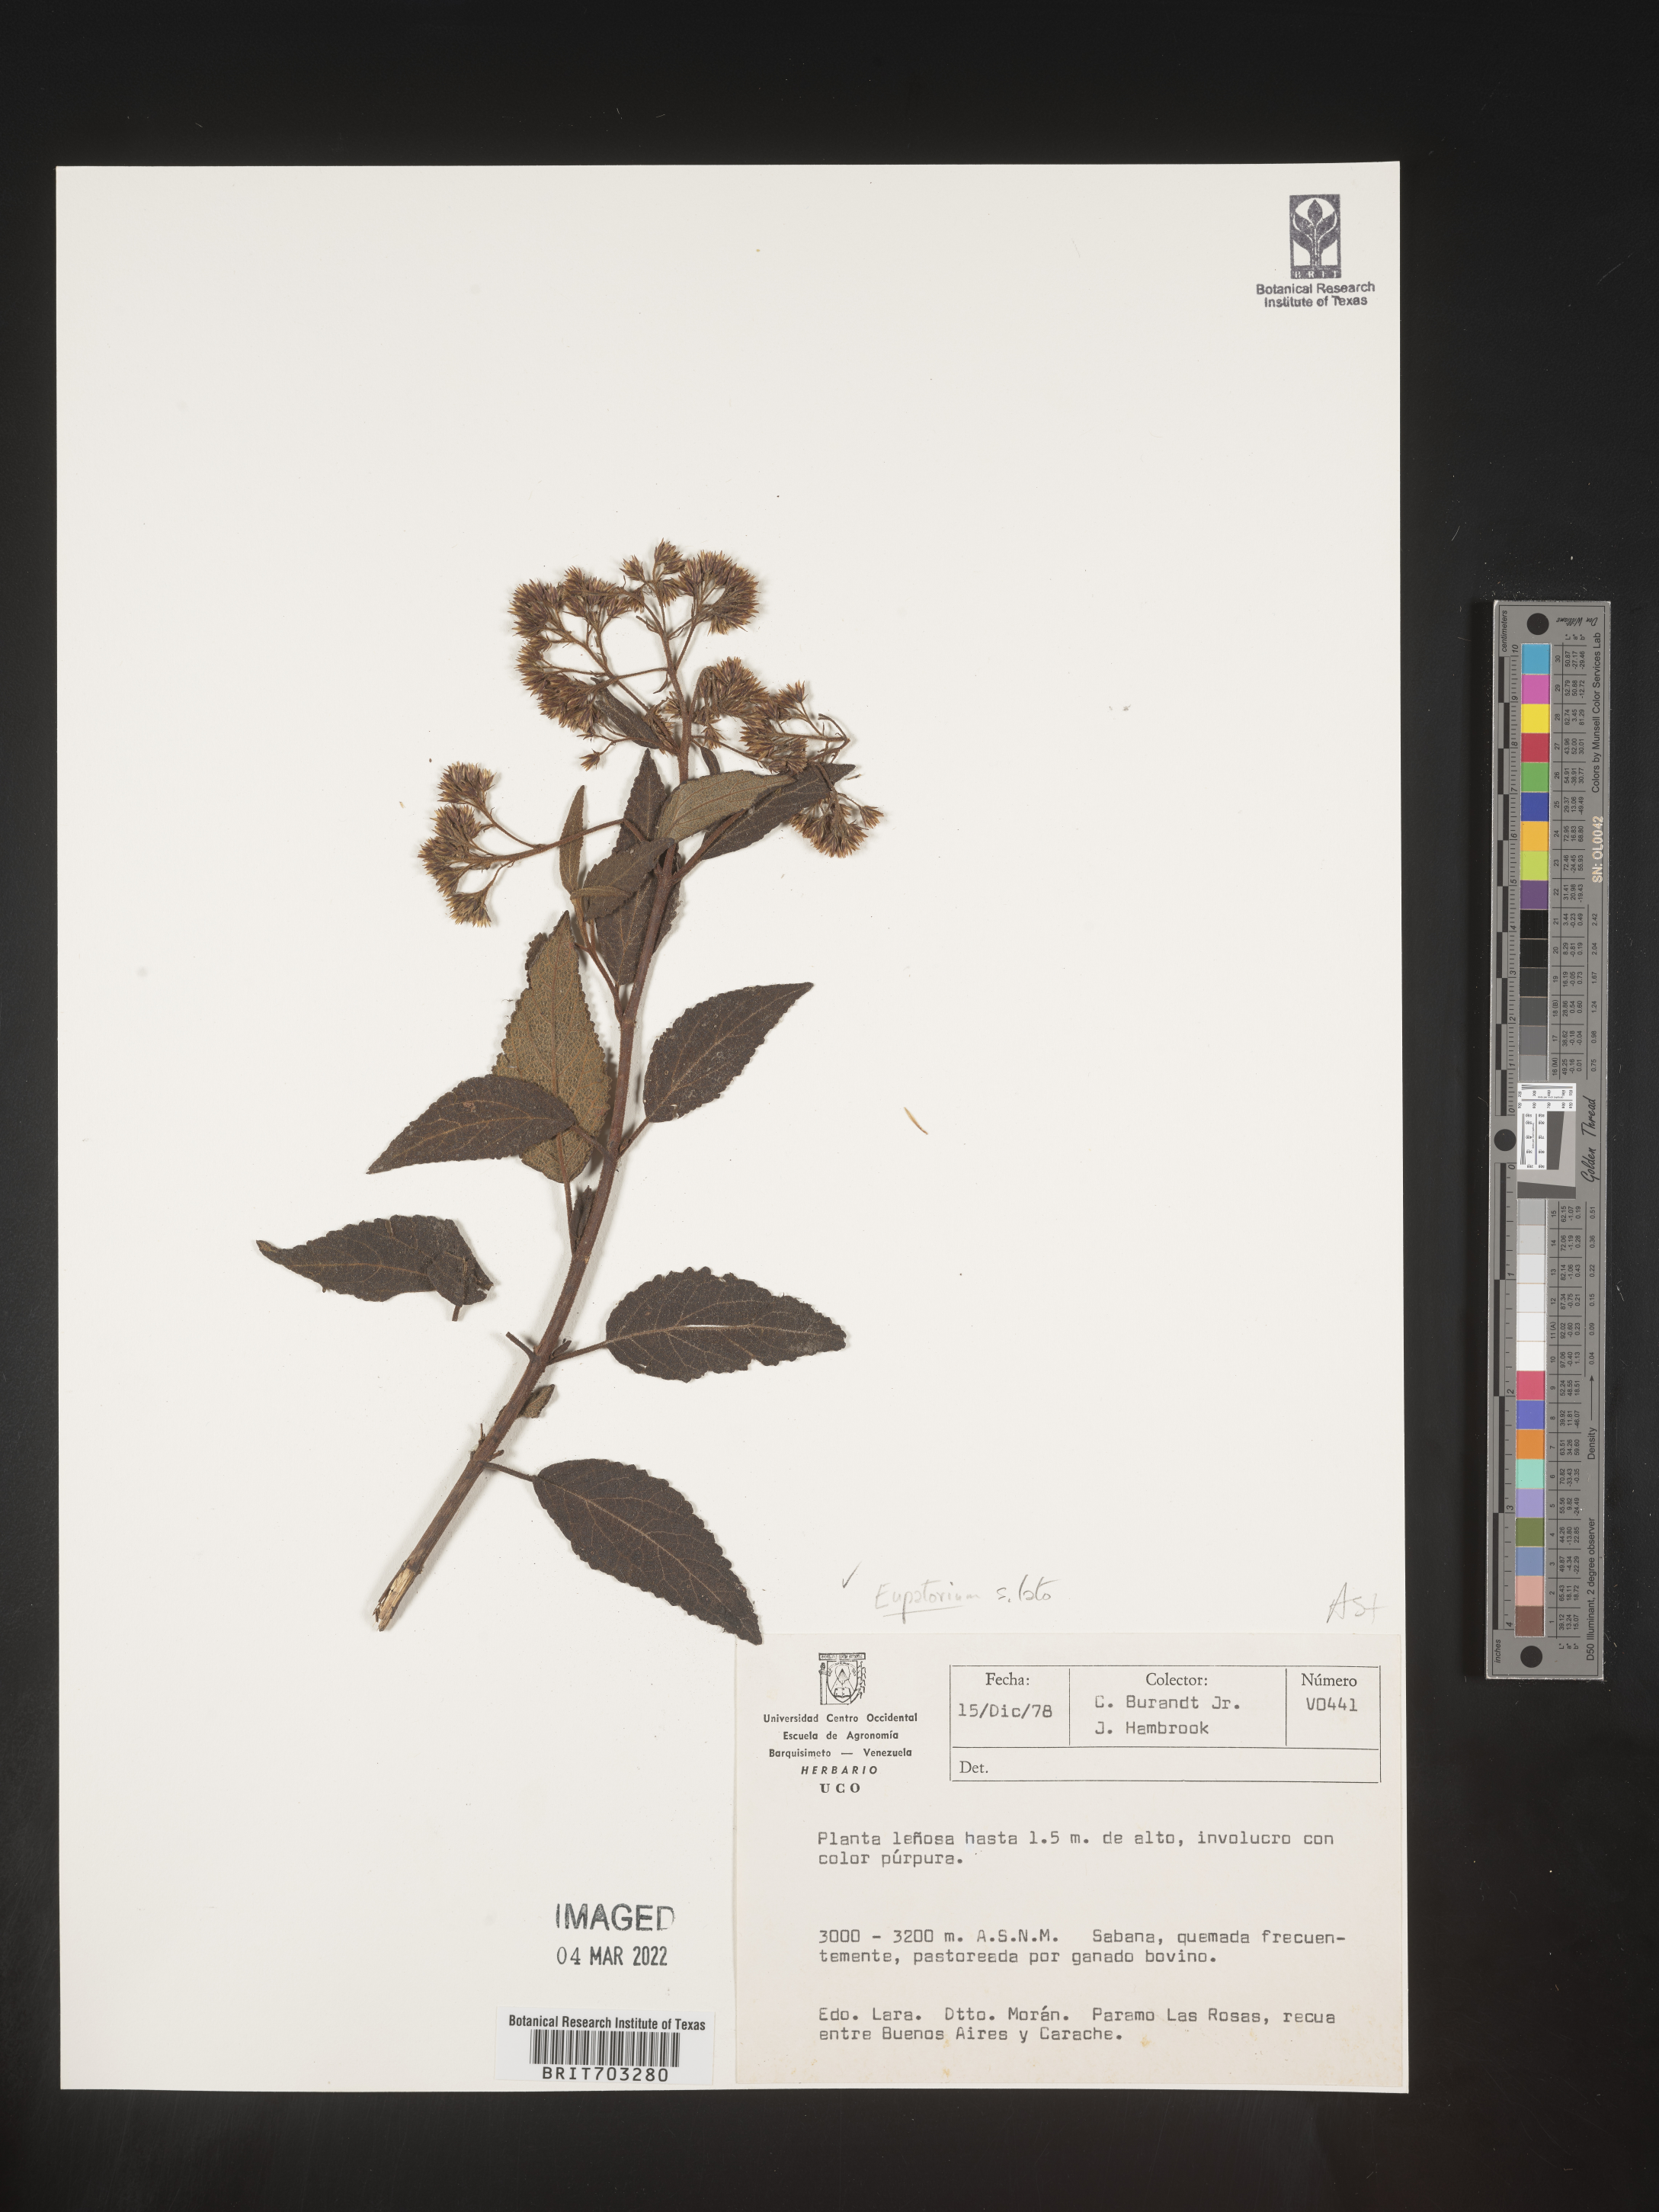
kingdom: Plantae
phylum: Tracheophyta
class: Magnoliopsida
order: Asterales
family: Asteraceae
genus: Eupatorium
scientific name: Eupatorium
